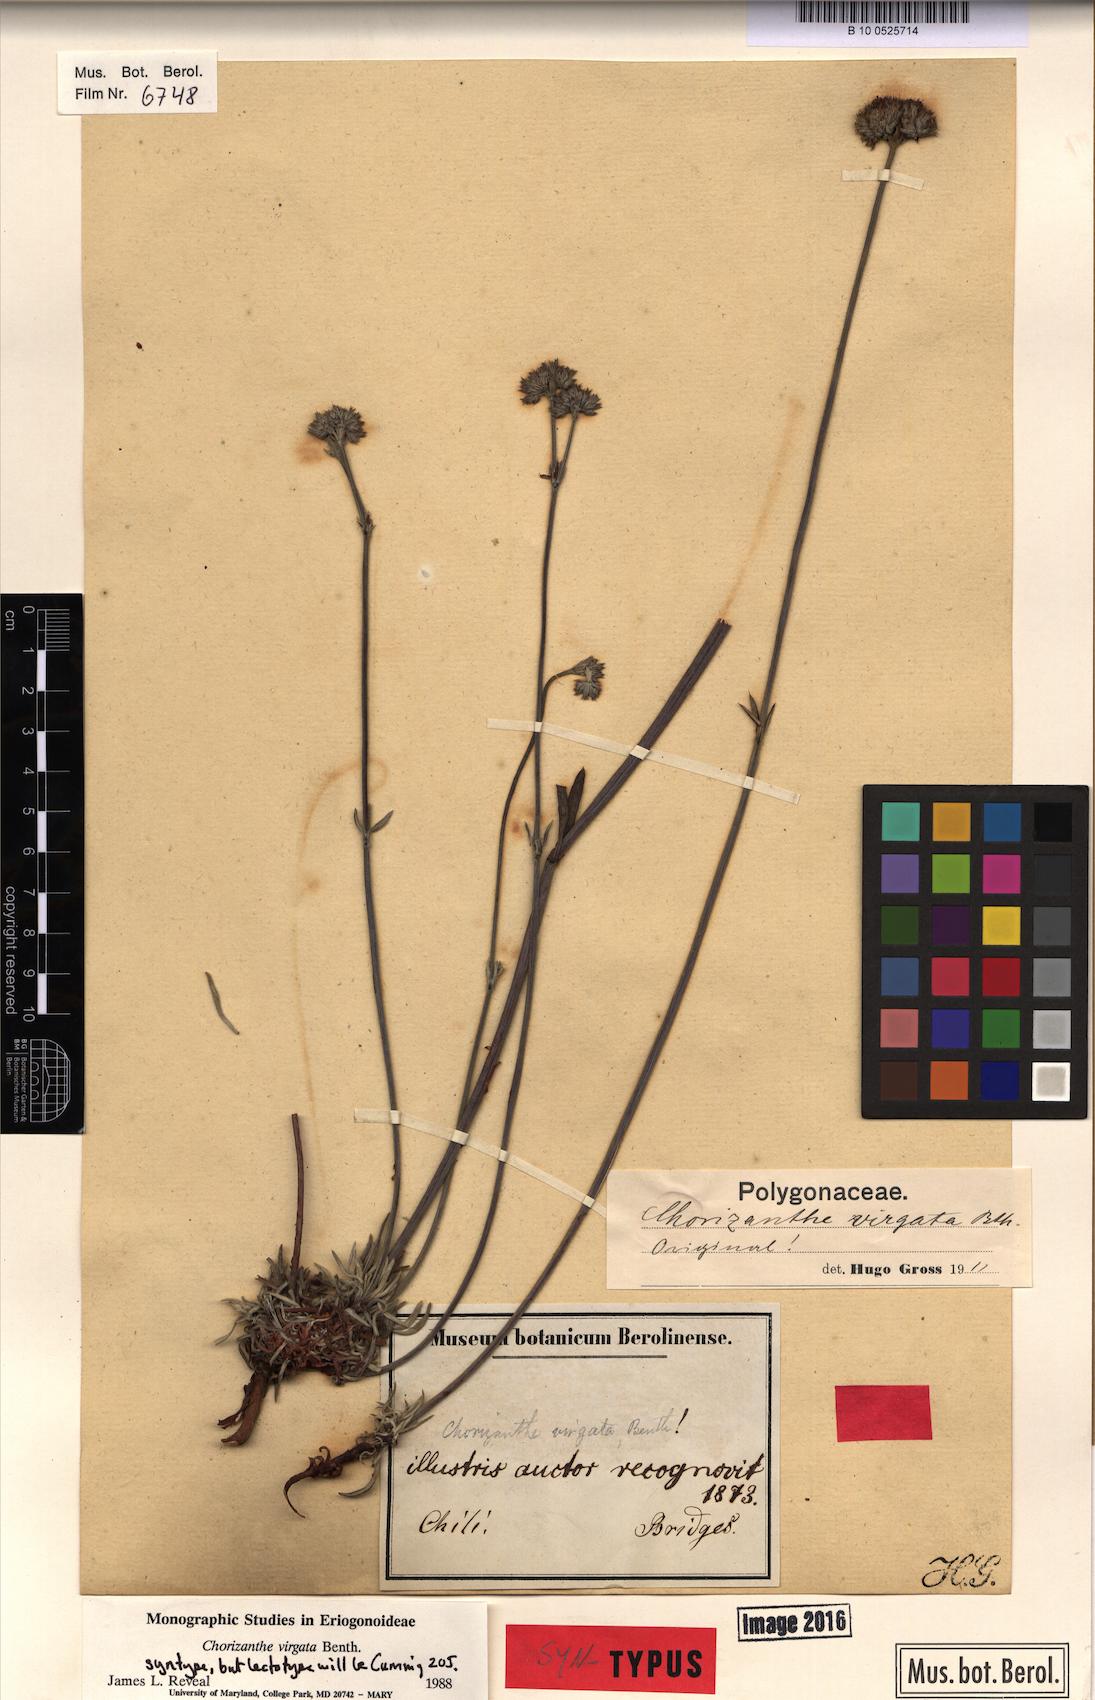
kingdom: Plantae
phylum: Tracheophyta
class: Magnoliopsida
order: Caryophyllales
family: Polygonaceae
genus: Chorizanthe
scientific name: Chorizanthe virgata
